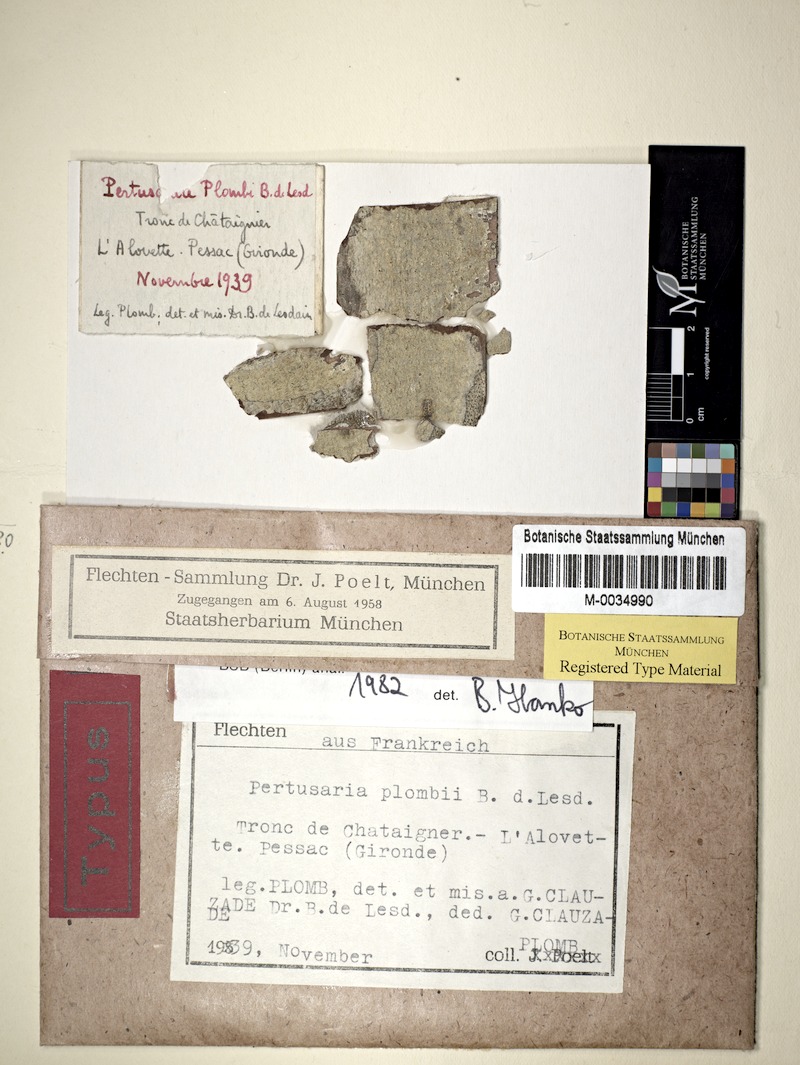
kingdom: Fungi
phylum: Ascomycota
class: Lecanoromycetes
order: Pertusariales
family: Pertusariaceae
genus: Pertusaria
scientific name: Pertusaria plombii
